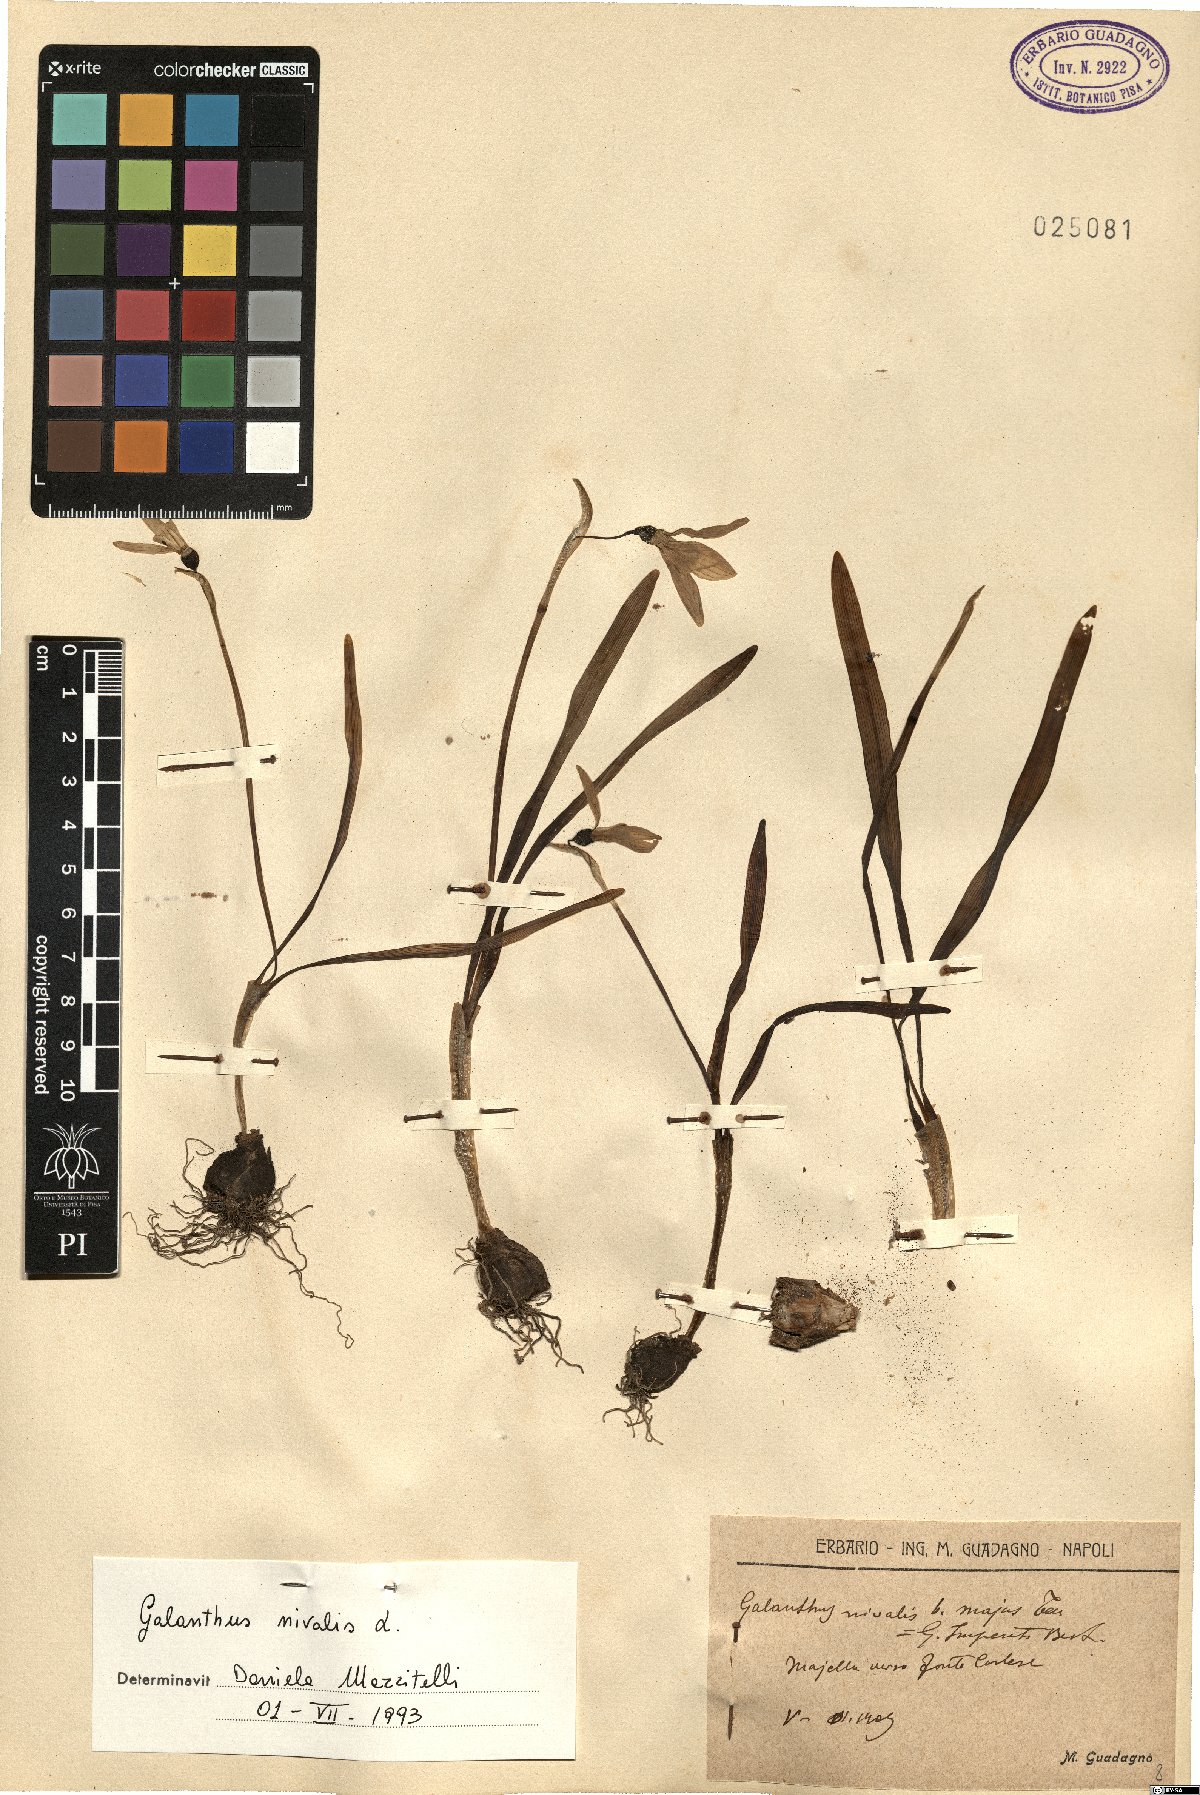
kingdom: Plantae
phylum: Tracheophyta
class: Liliopsida
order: Asparagales
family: Amaryllidaceae
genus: Galanthus
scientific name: Galanthus nivalis
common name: Snowdrop
